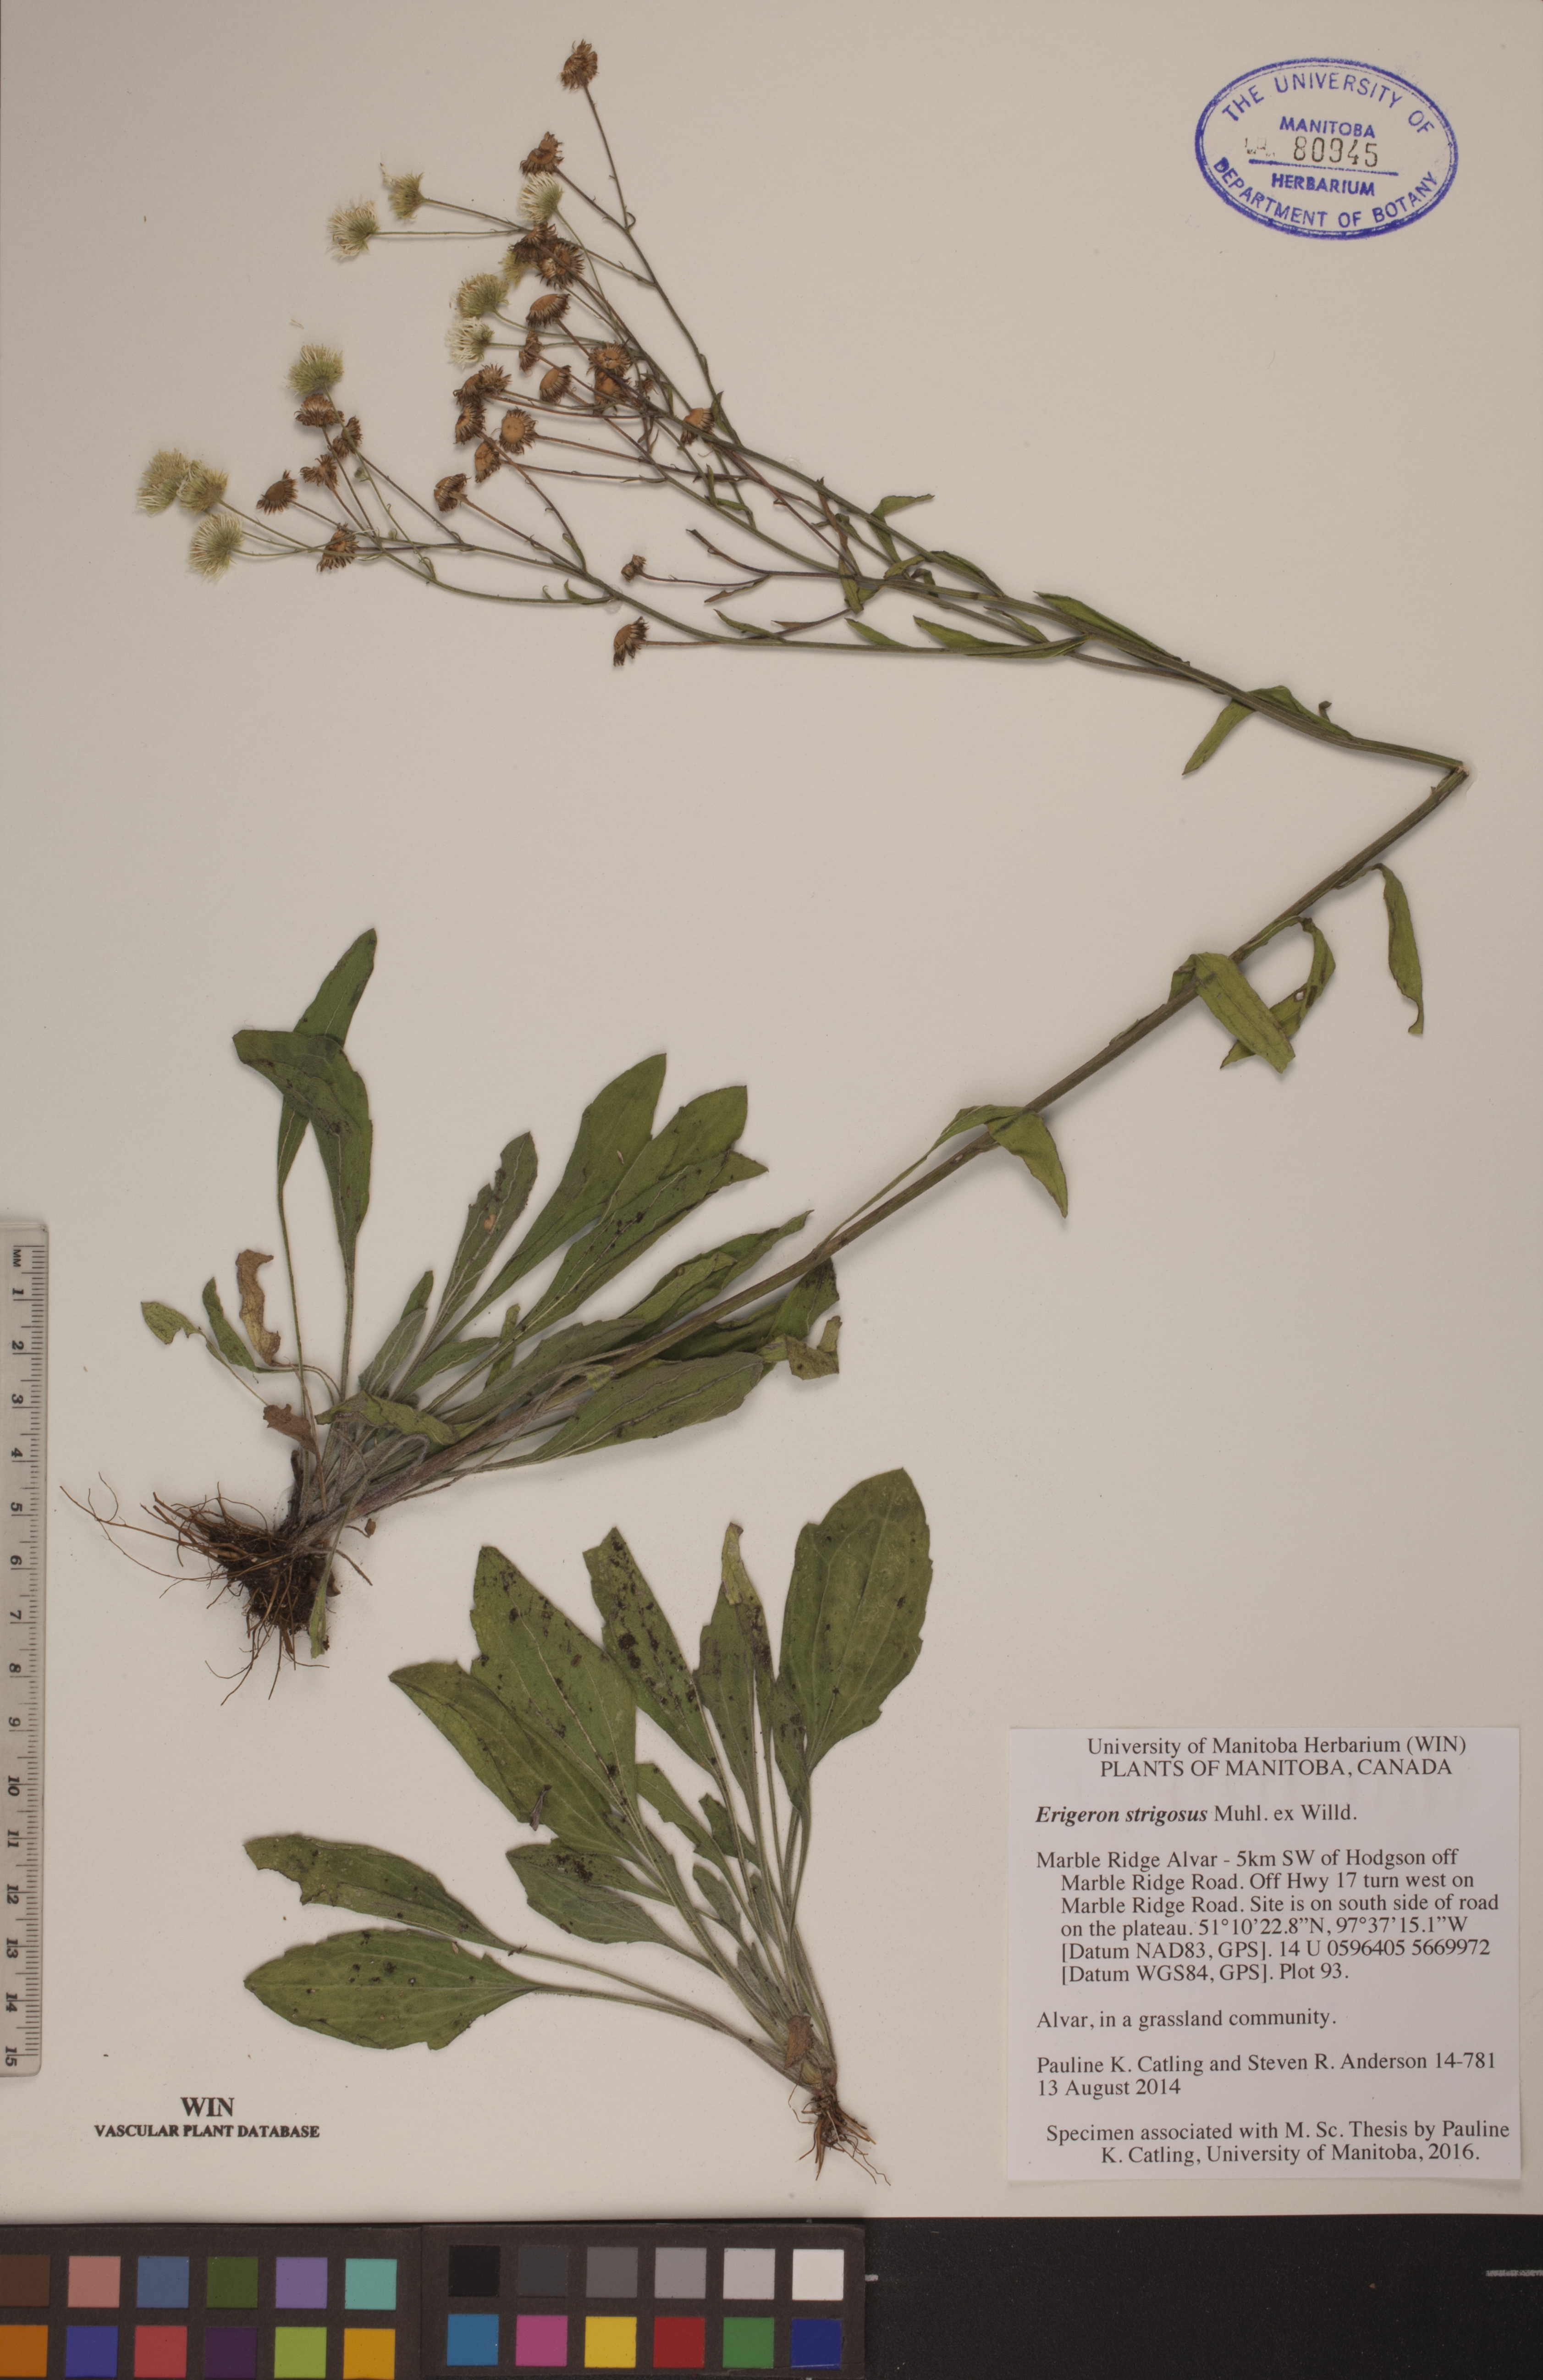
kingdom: Plantae
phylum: Tracheophyta
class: Magnoliopsida
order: Asterales
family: Asteraceae
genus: Erigeron
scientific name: Erigeron strigosus
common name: Common eastern fleabane
